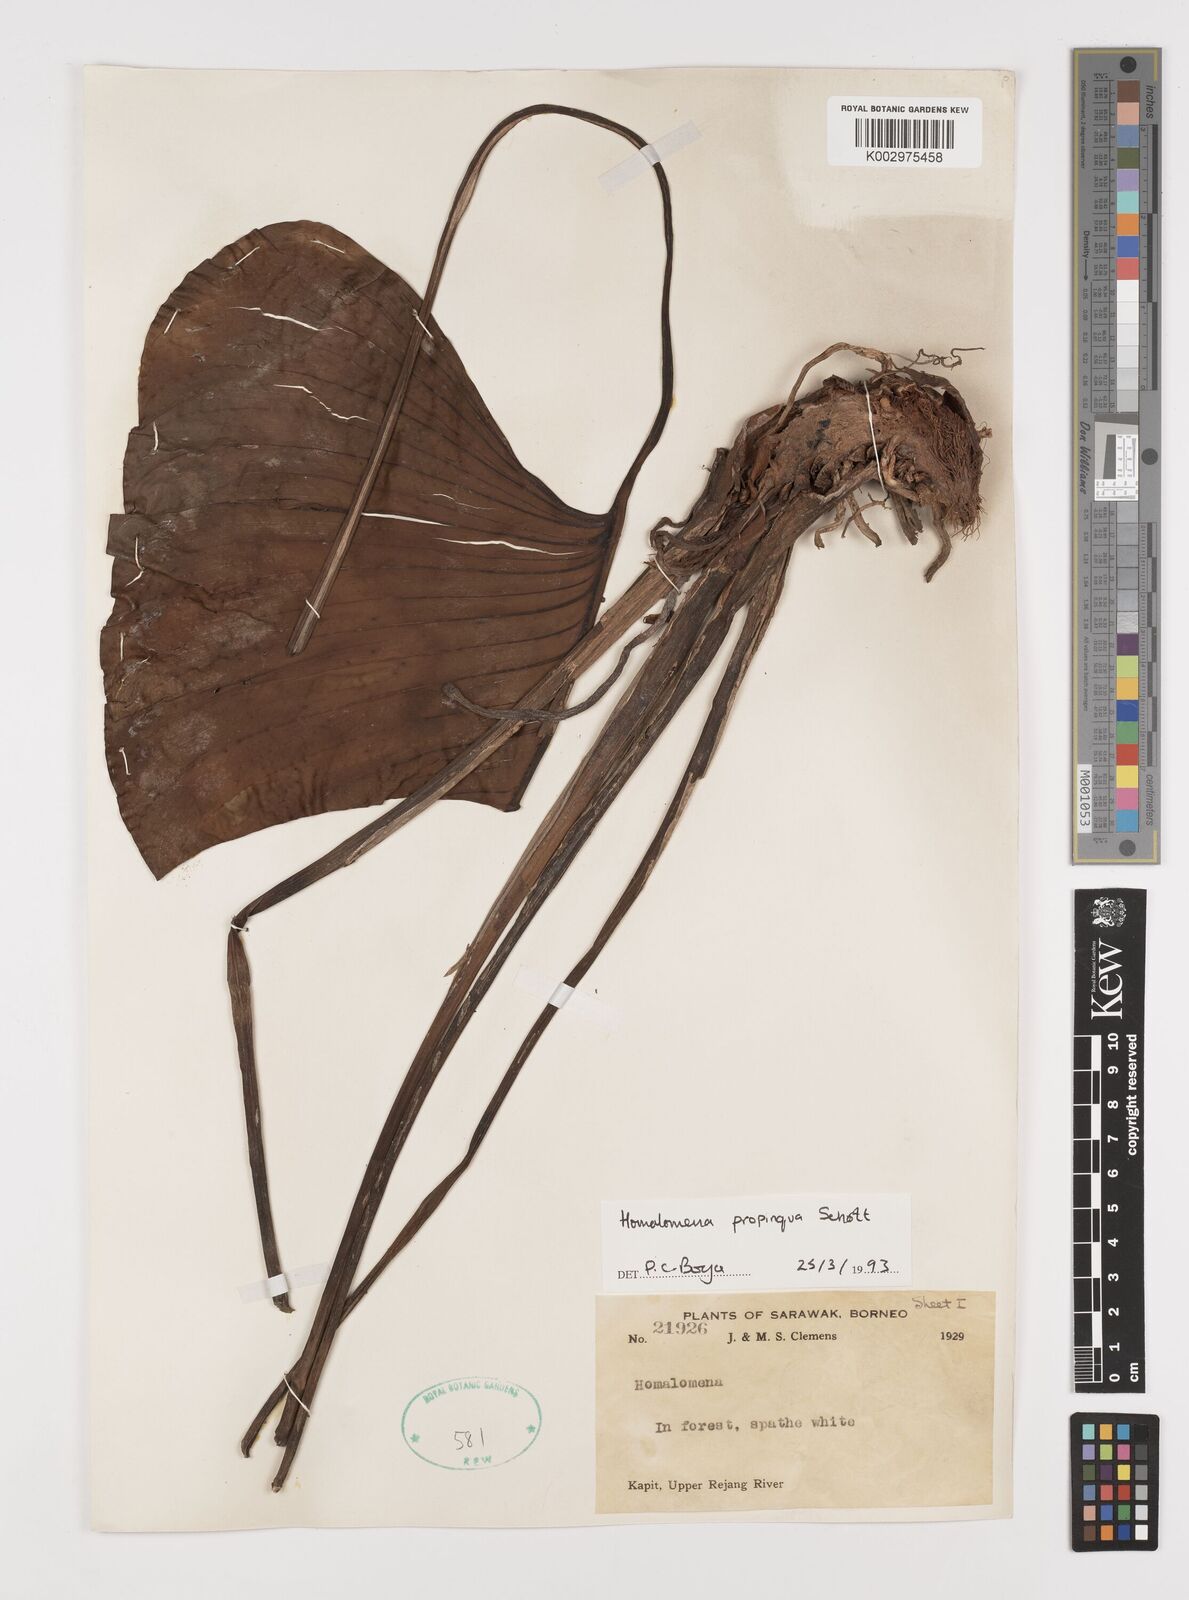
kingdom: Plantae
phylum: Tracheophyta
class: Liliopsida
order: Alismatales
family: Araceae
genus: Homalomena
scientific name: Homalomena humilis
